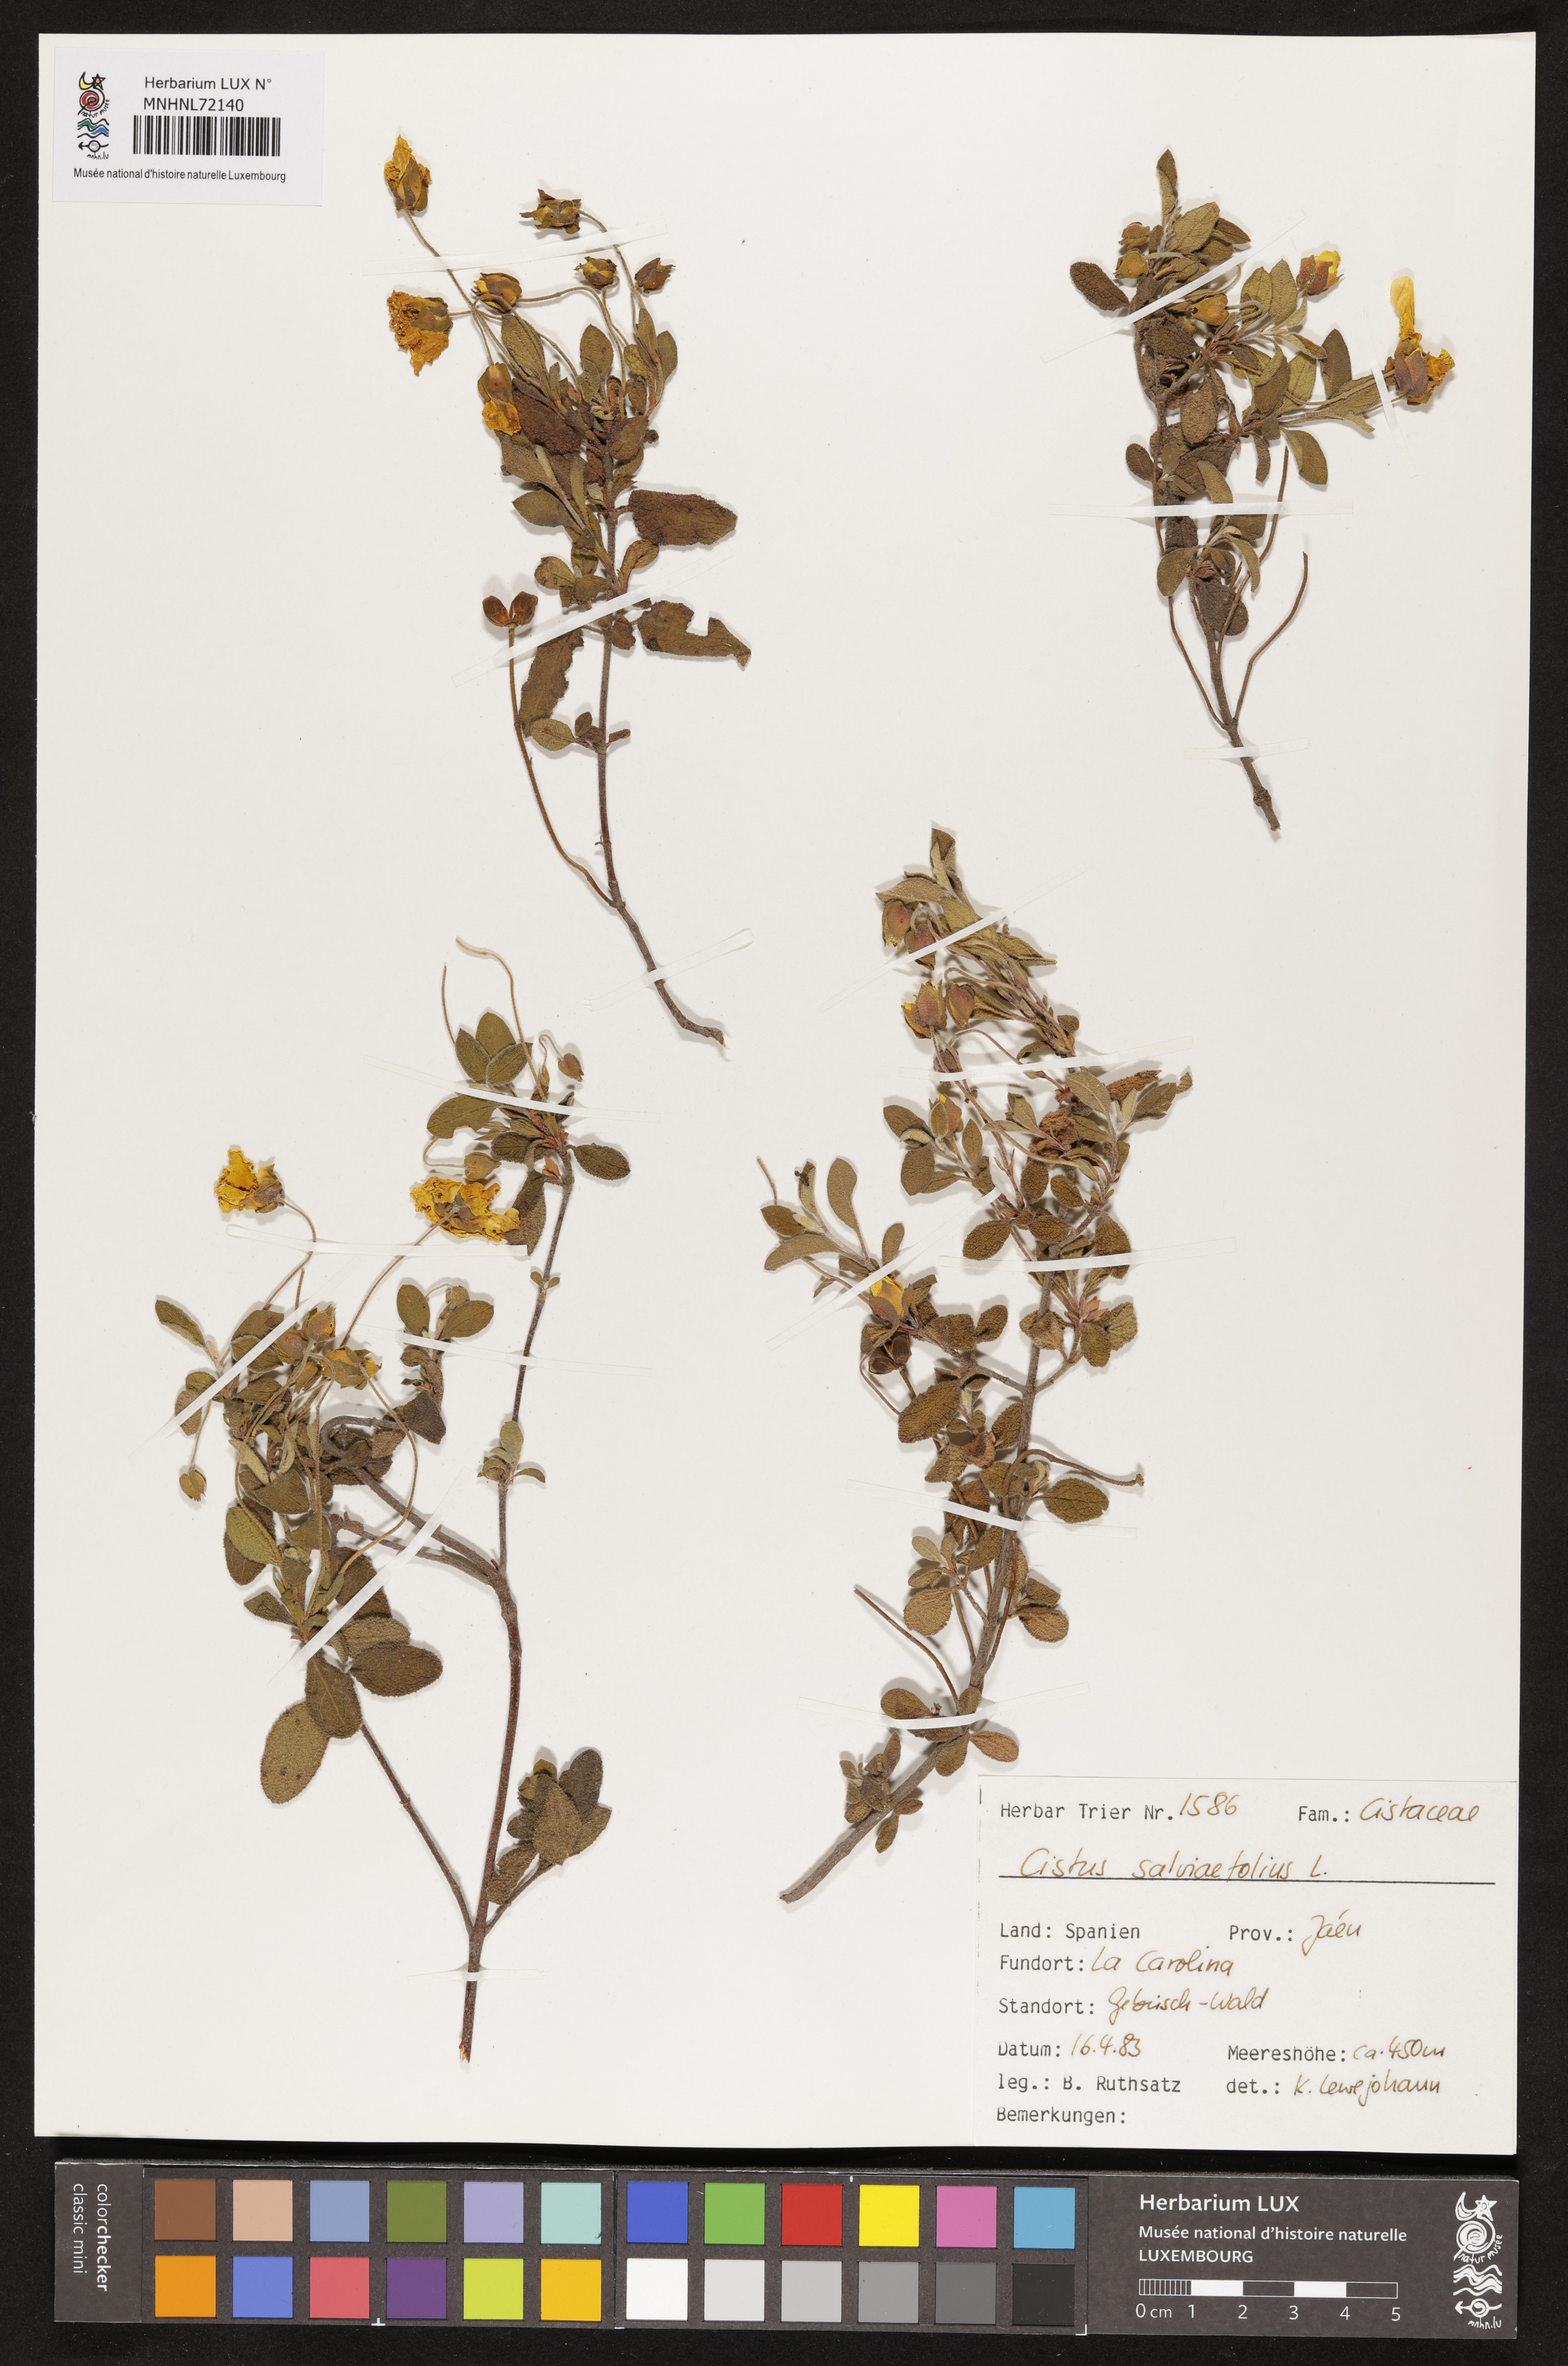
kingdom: Plantae
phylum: Tracheophyta
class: Magnoliopsida
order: Malvales
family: Cistaceae
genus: Cistus
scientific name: Cistus salviifolius
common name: Salvia cistus
